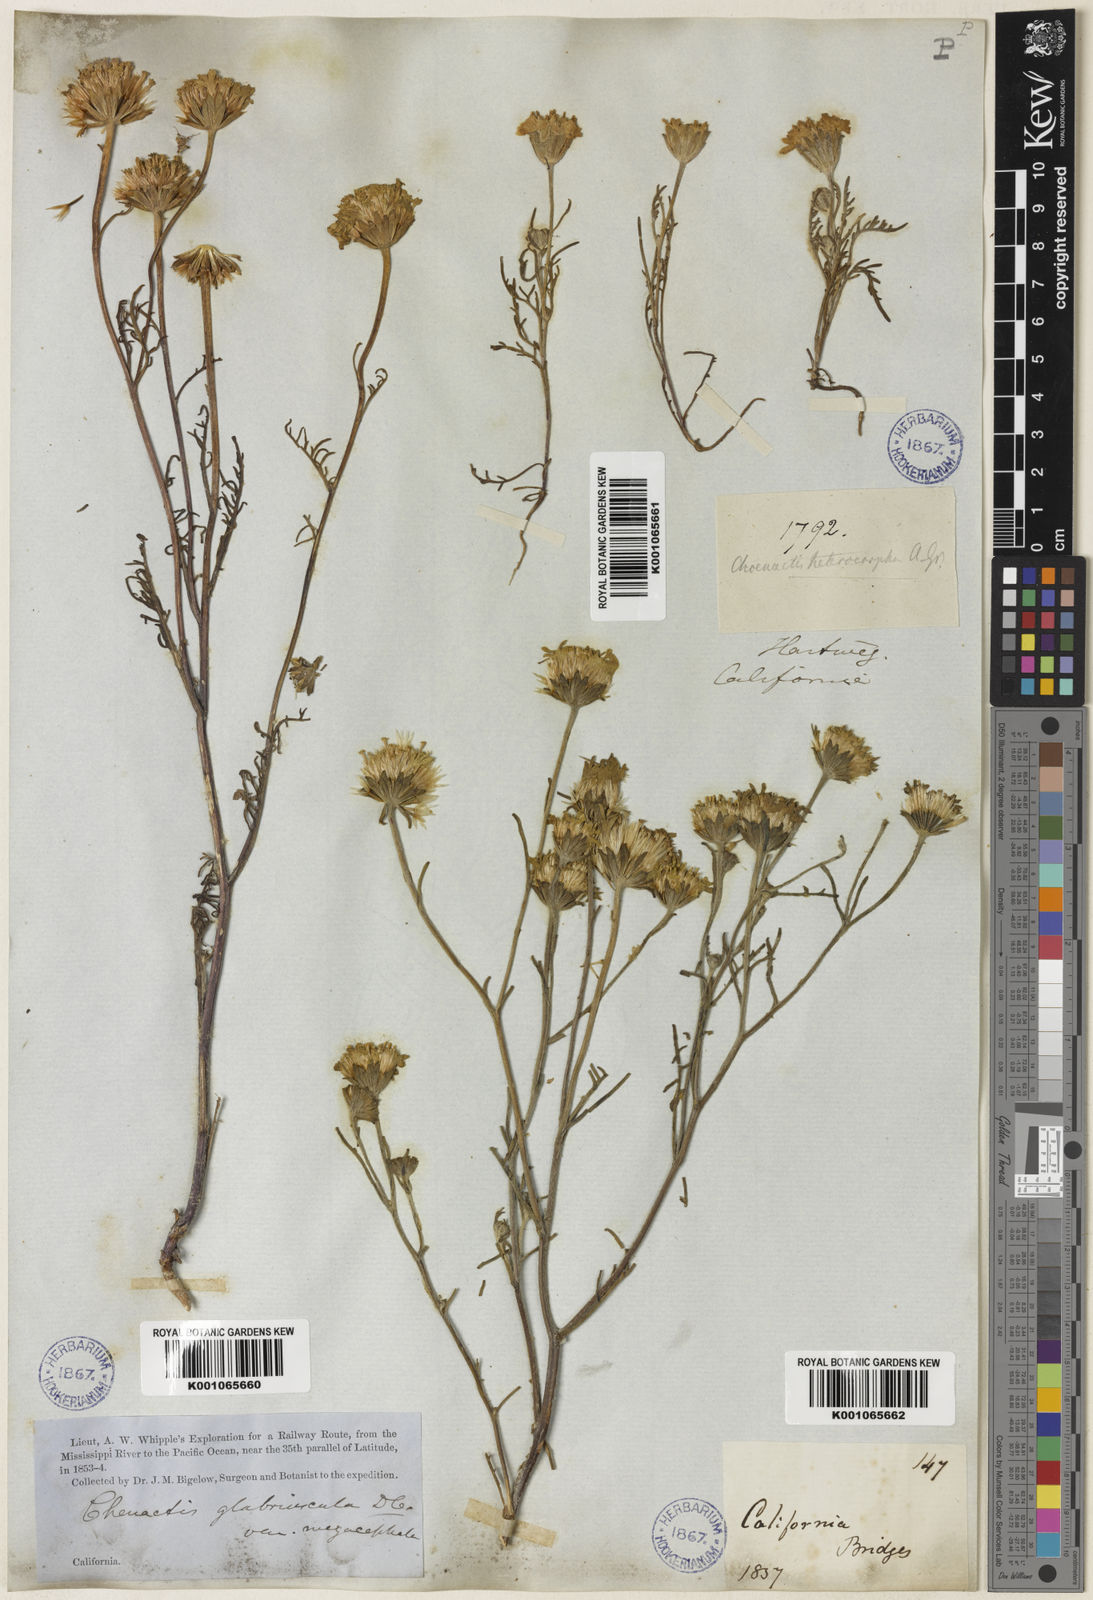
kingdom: Plantae
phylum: Tracheophyta
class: Magnoliopsida
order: Asterales
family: Asteraceae
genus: Chaenactis
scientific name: Chaenactis glabriuscula
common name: Yellow pincushion
